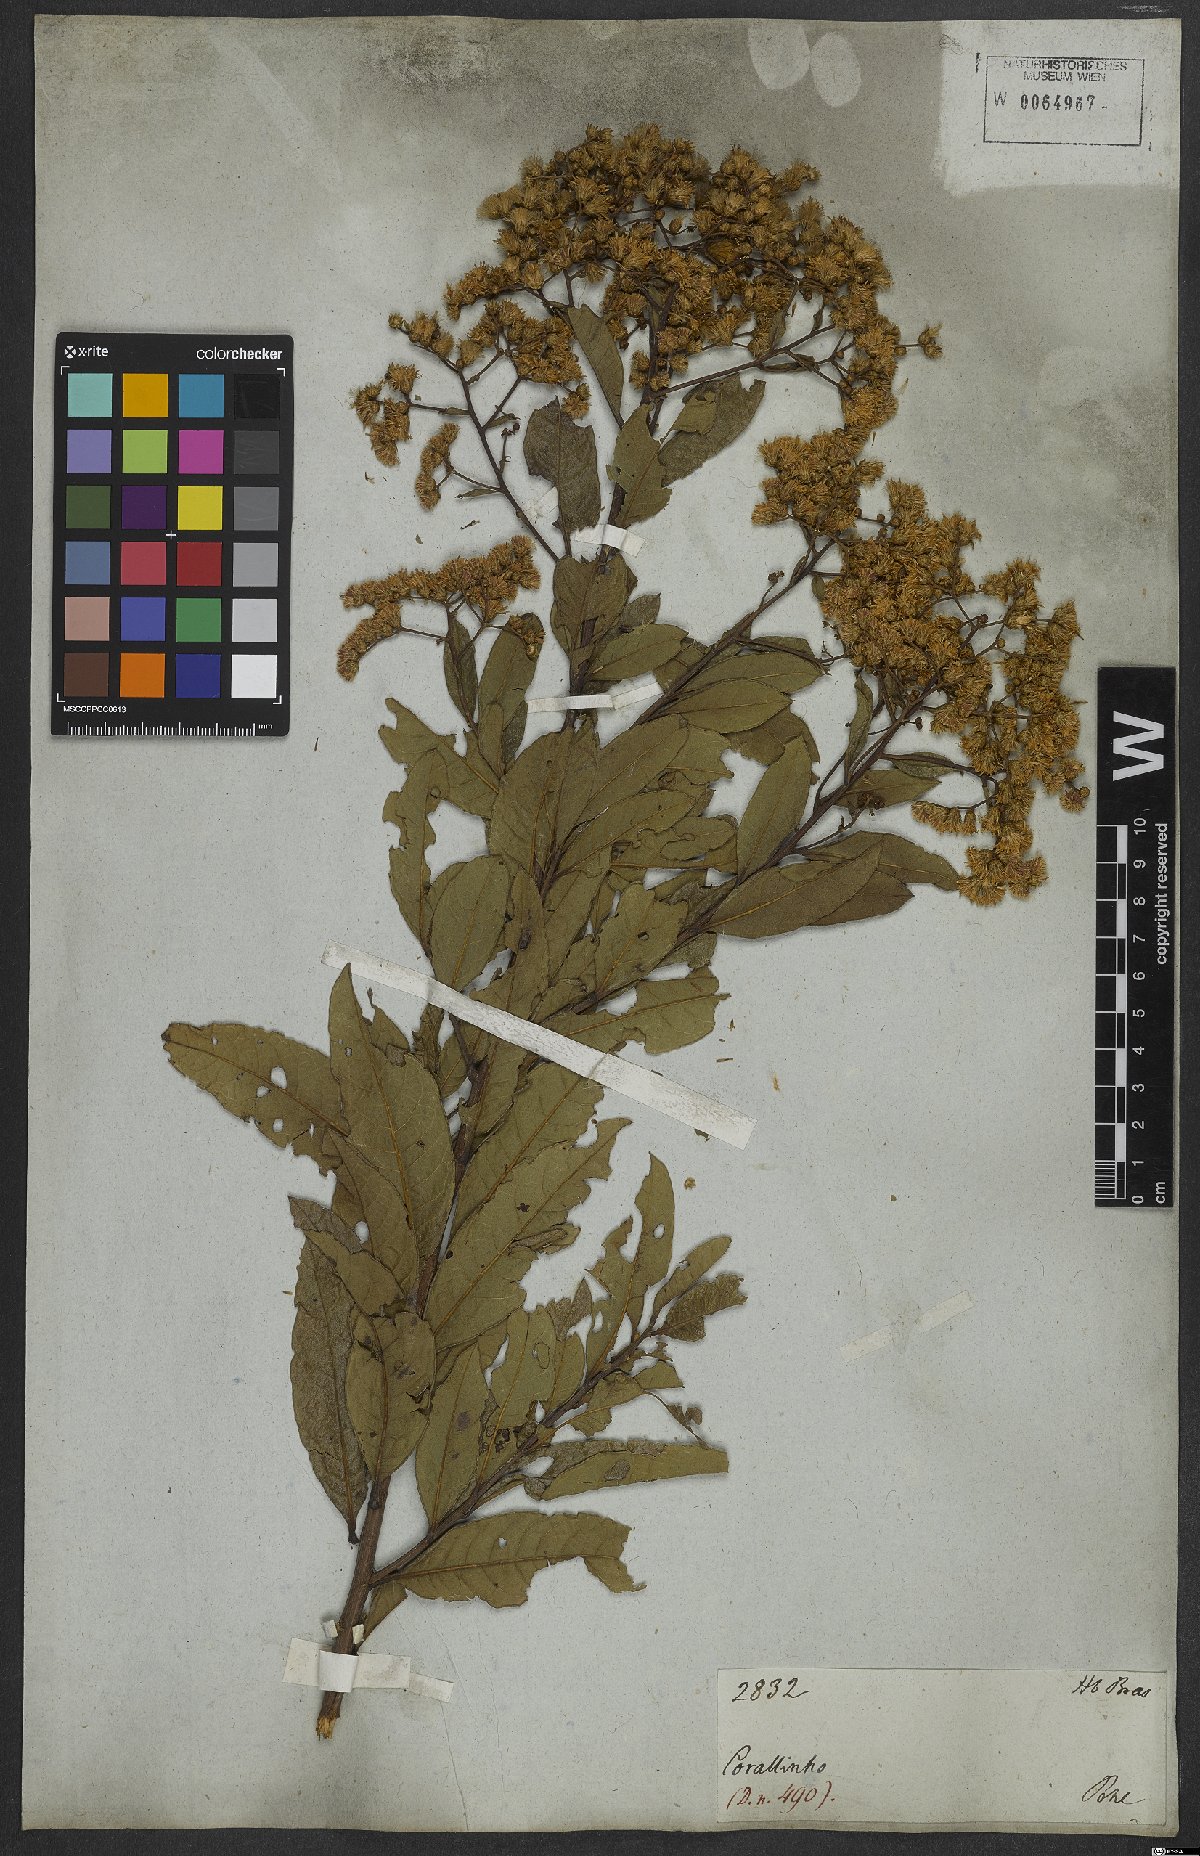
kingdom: Plantae
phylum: Tracheophyta
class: Magnoliopsida
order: Asterales
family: Asteraceae
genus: Vernonanthura
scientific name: Vernonanthura membranacea
